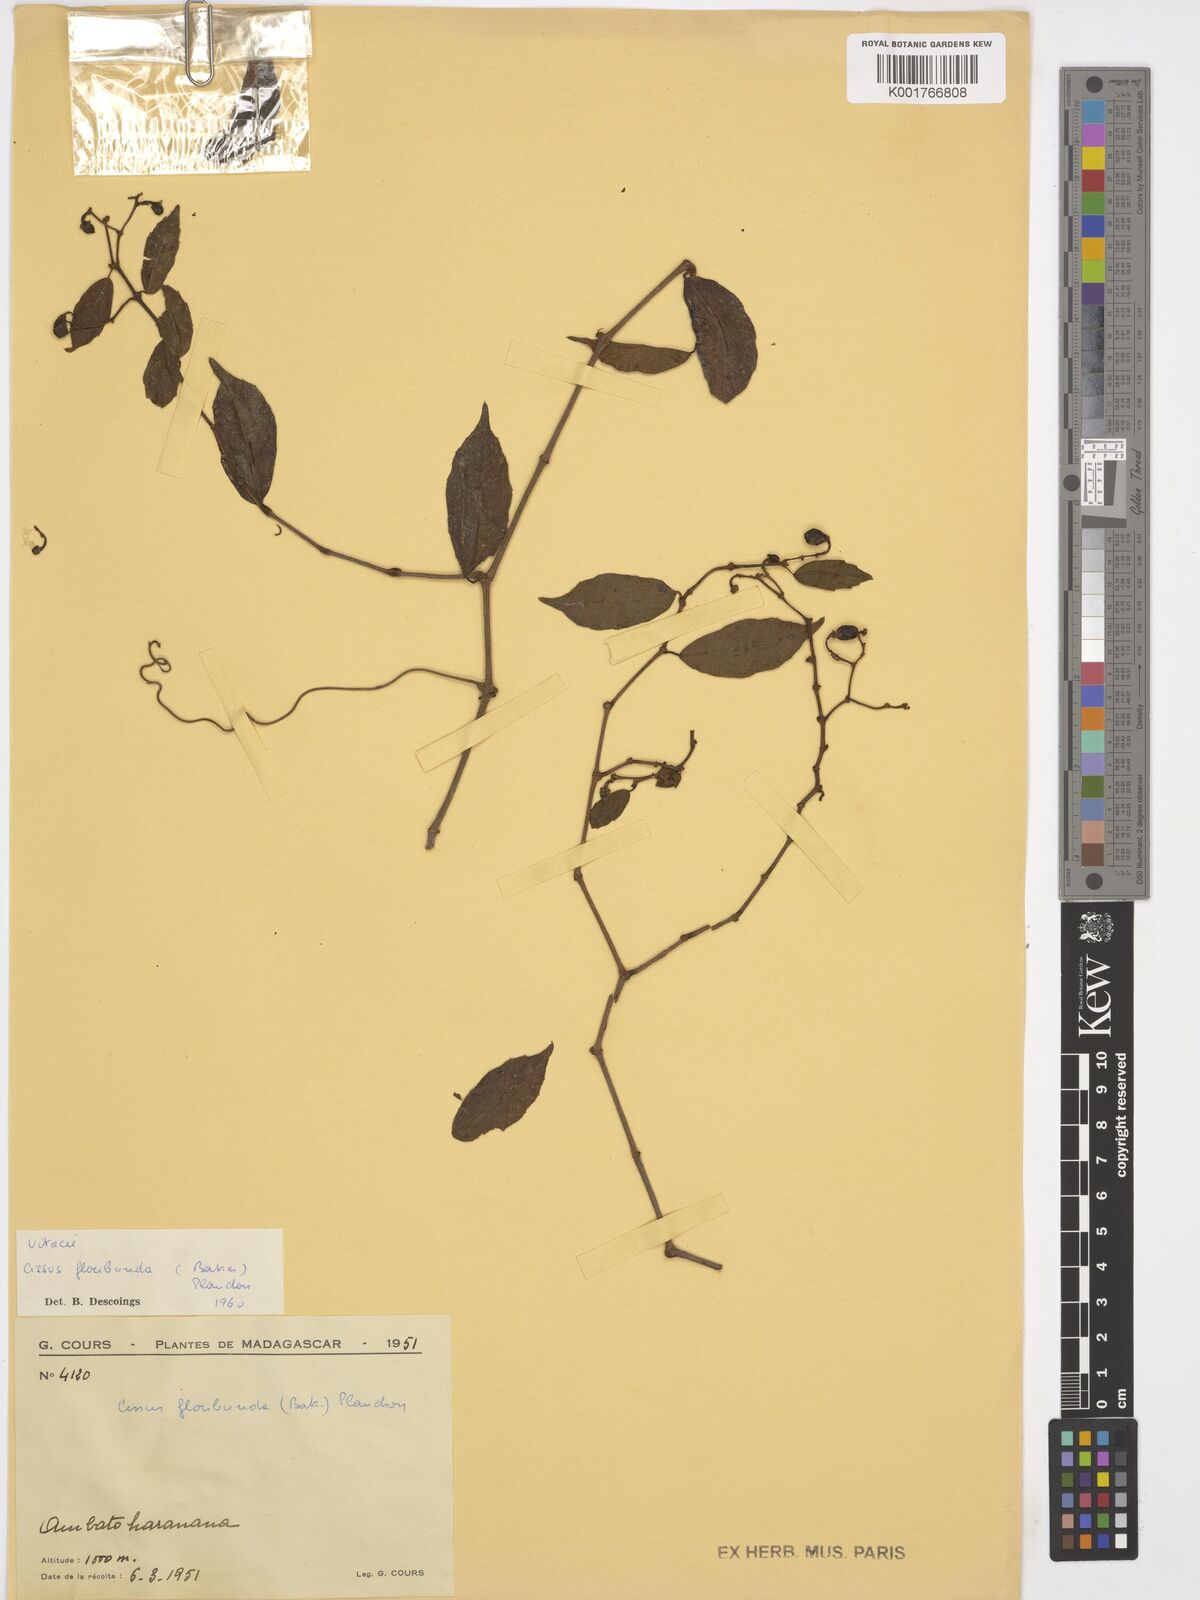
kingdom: Plantae
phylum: Tracheophyta
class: Magnoliopsida
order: Vitales
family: Vitaceae
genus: Cissus
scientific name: Cissus floribunda
